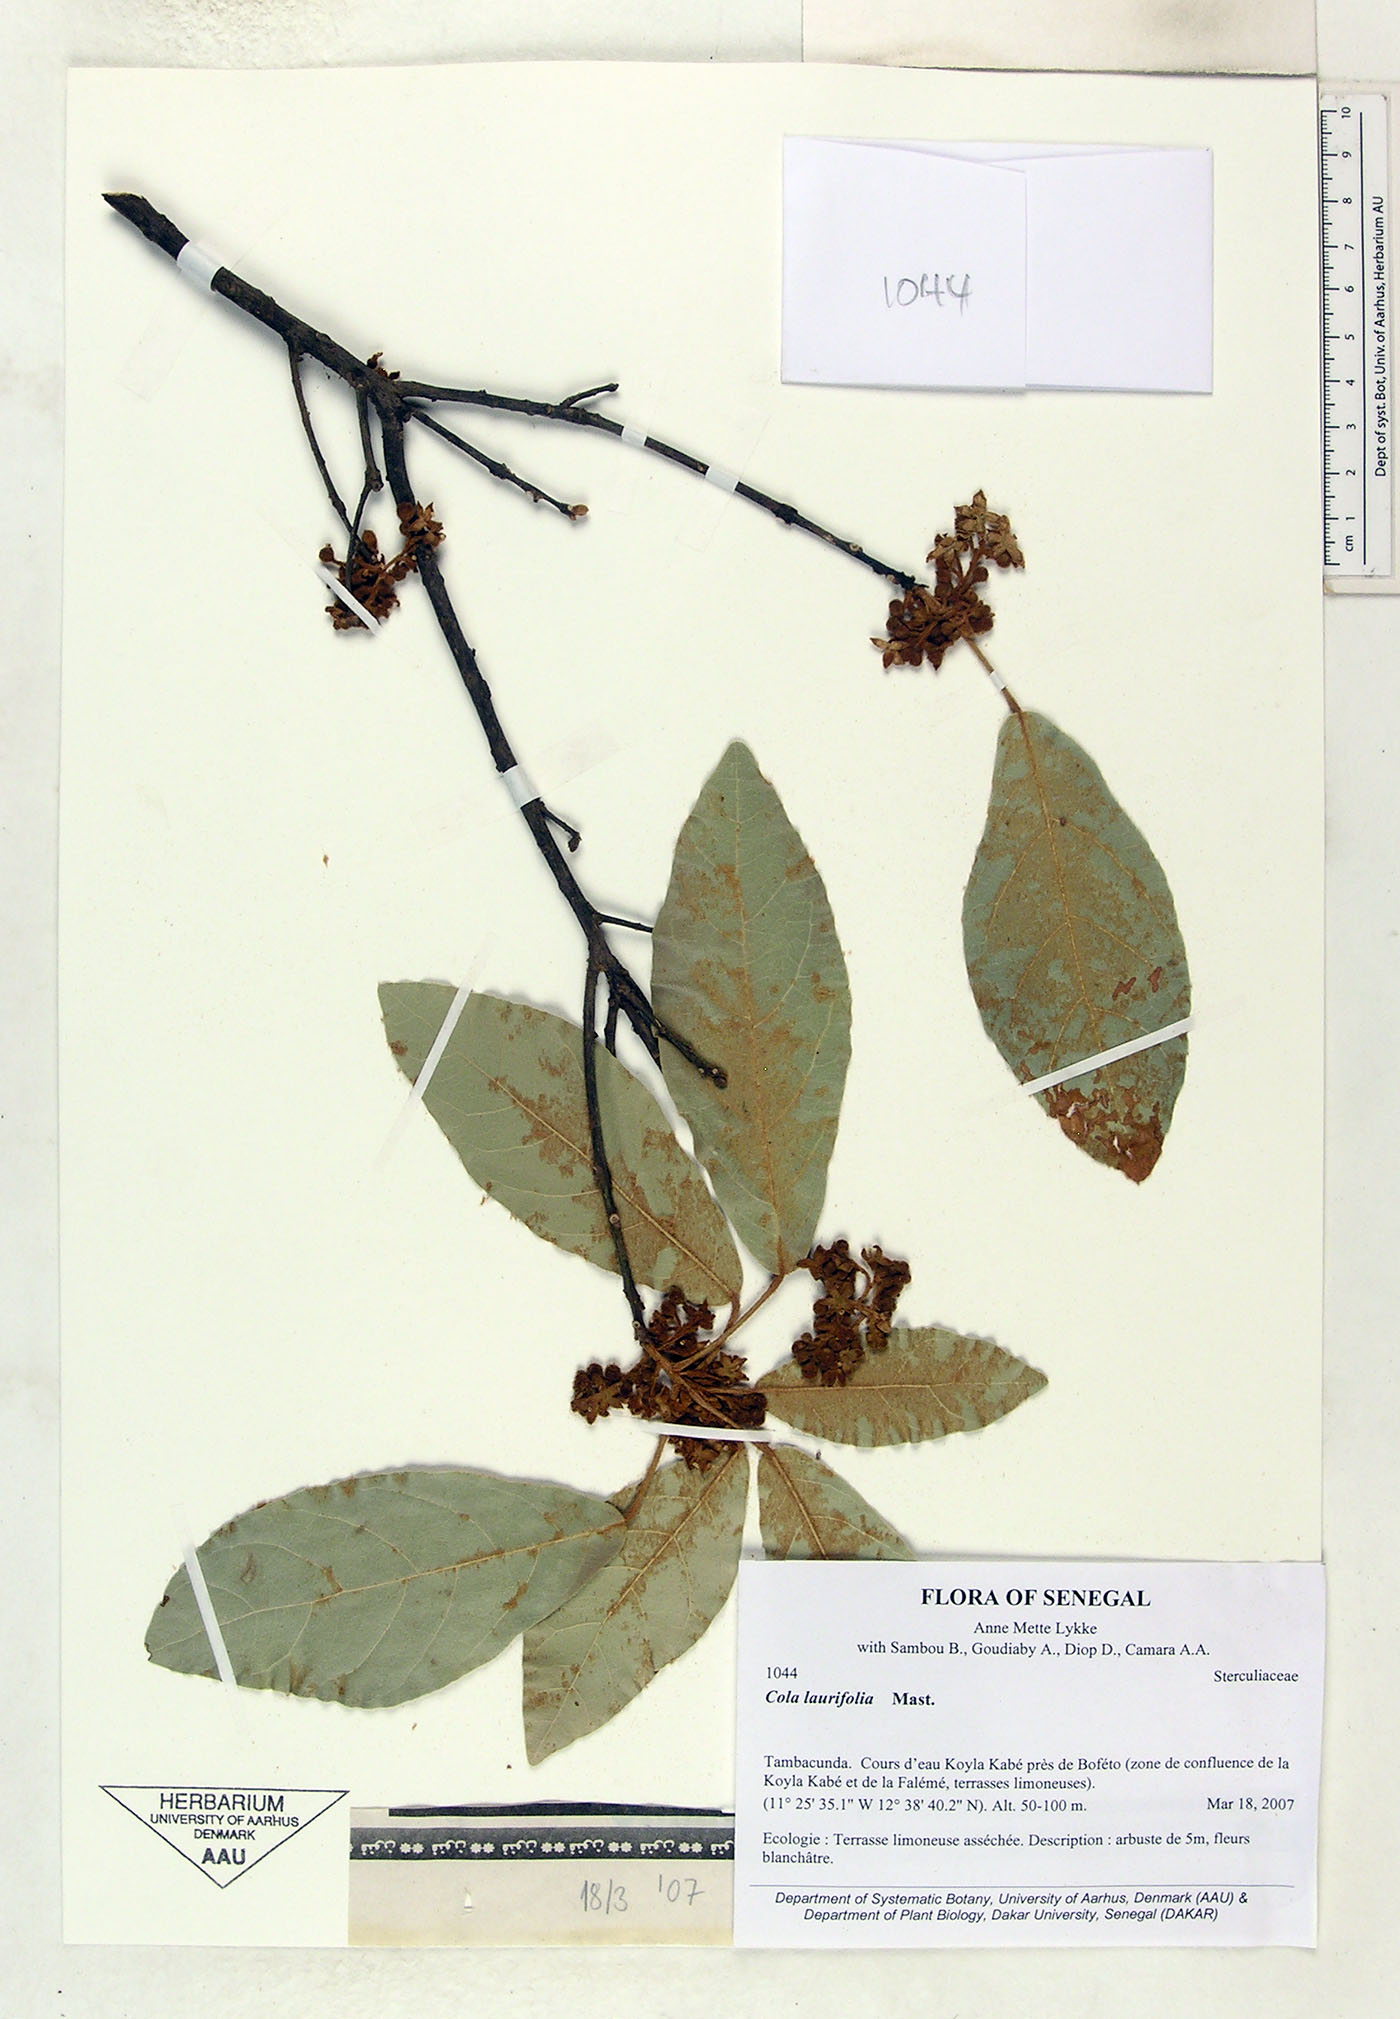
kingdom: Plantae
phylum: Tracheophyta
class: Magnoliopsida
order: Malvales
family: Malvaceae
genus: Cola
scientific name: Cola laurifolia
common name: Laurel-leaved kola
